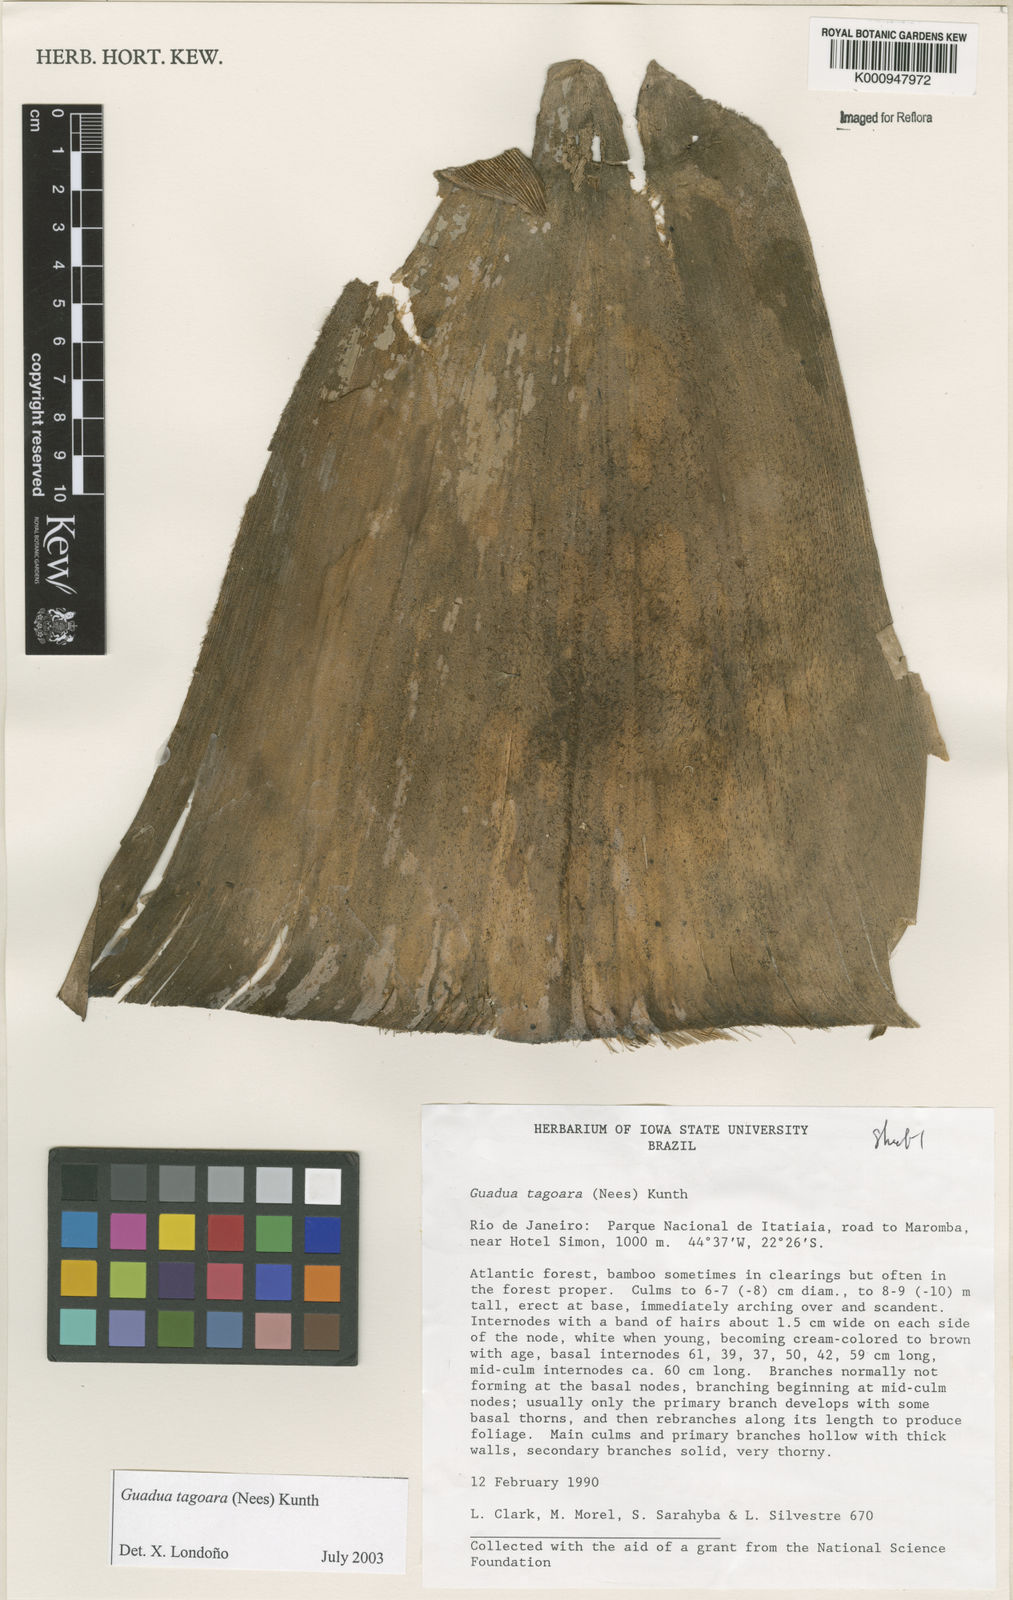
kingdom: Plantae
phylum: Tracheophyta
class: Liliopsida
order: Poales
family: Poaceae
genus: Guadua
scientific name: Guadua tagoara
